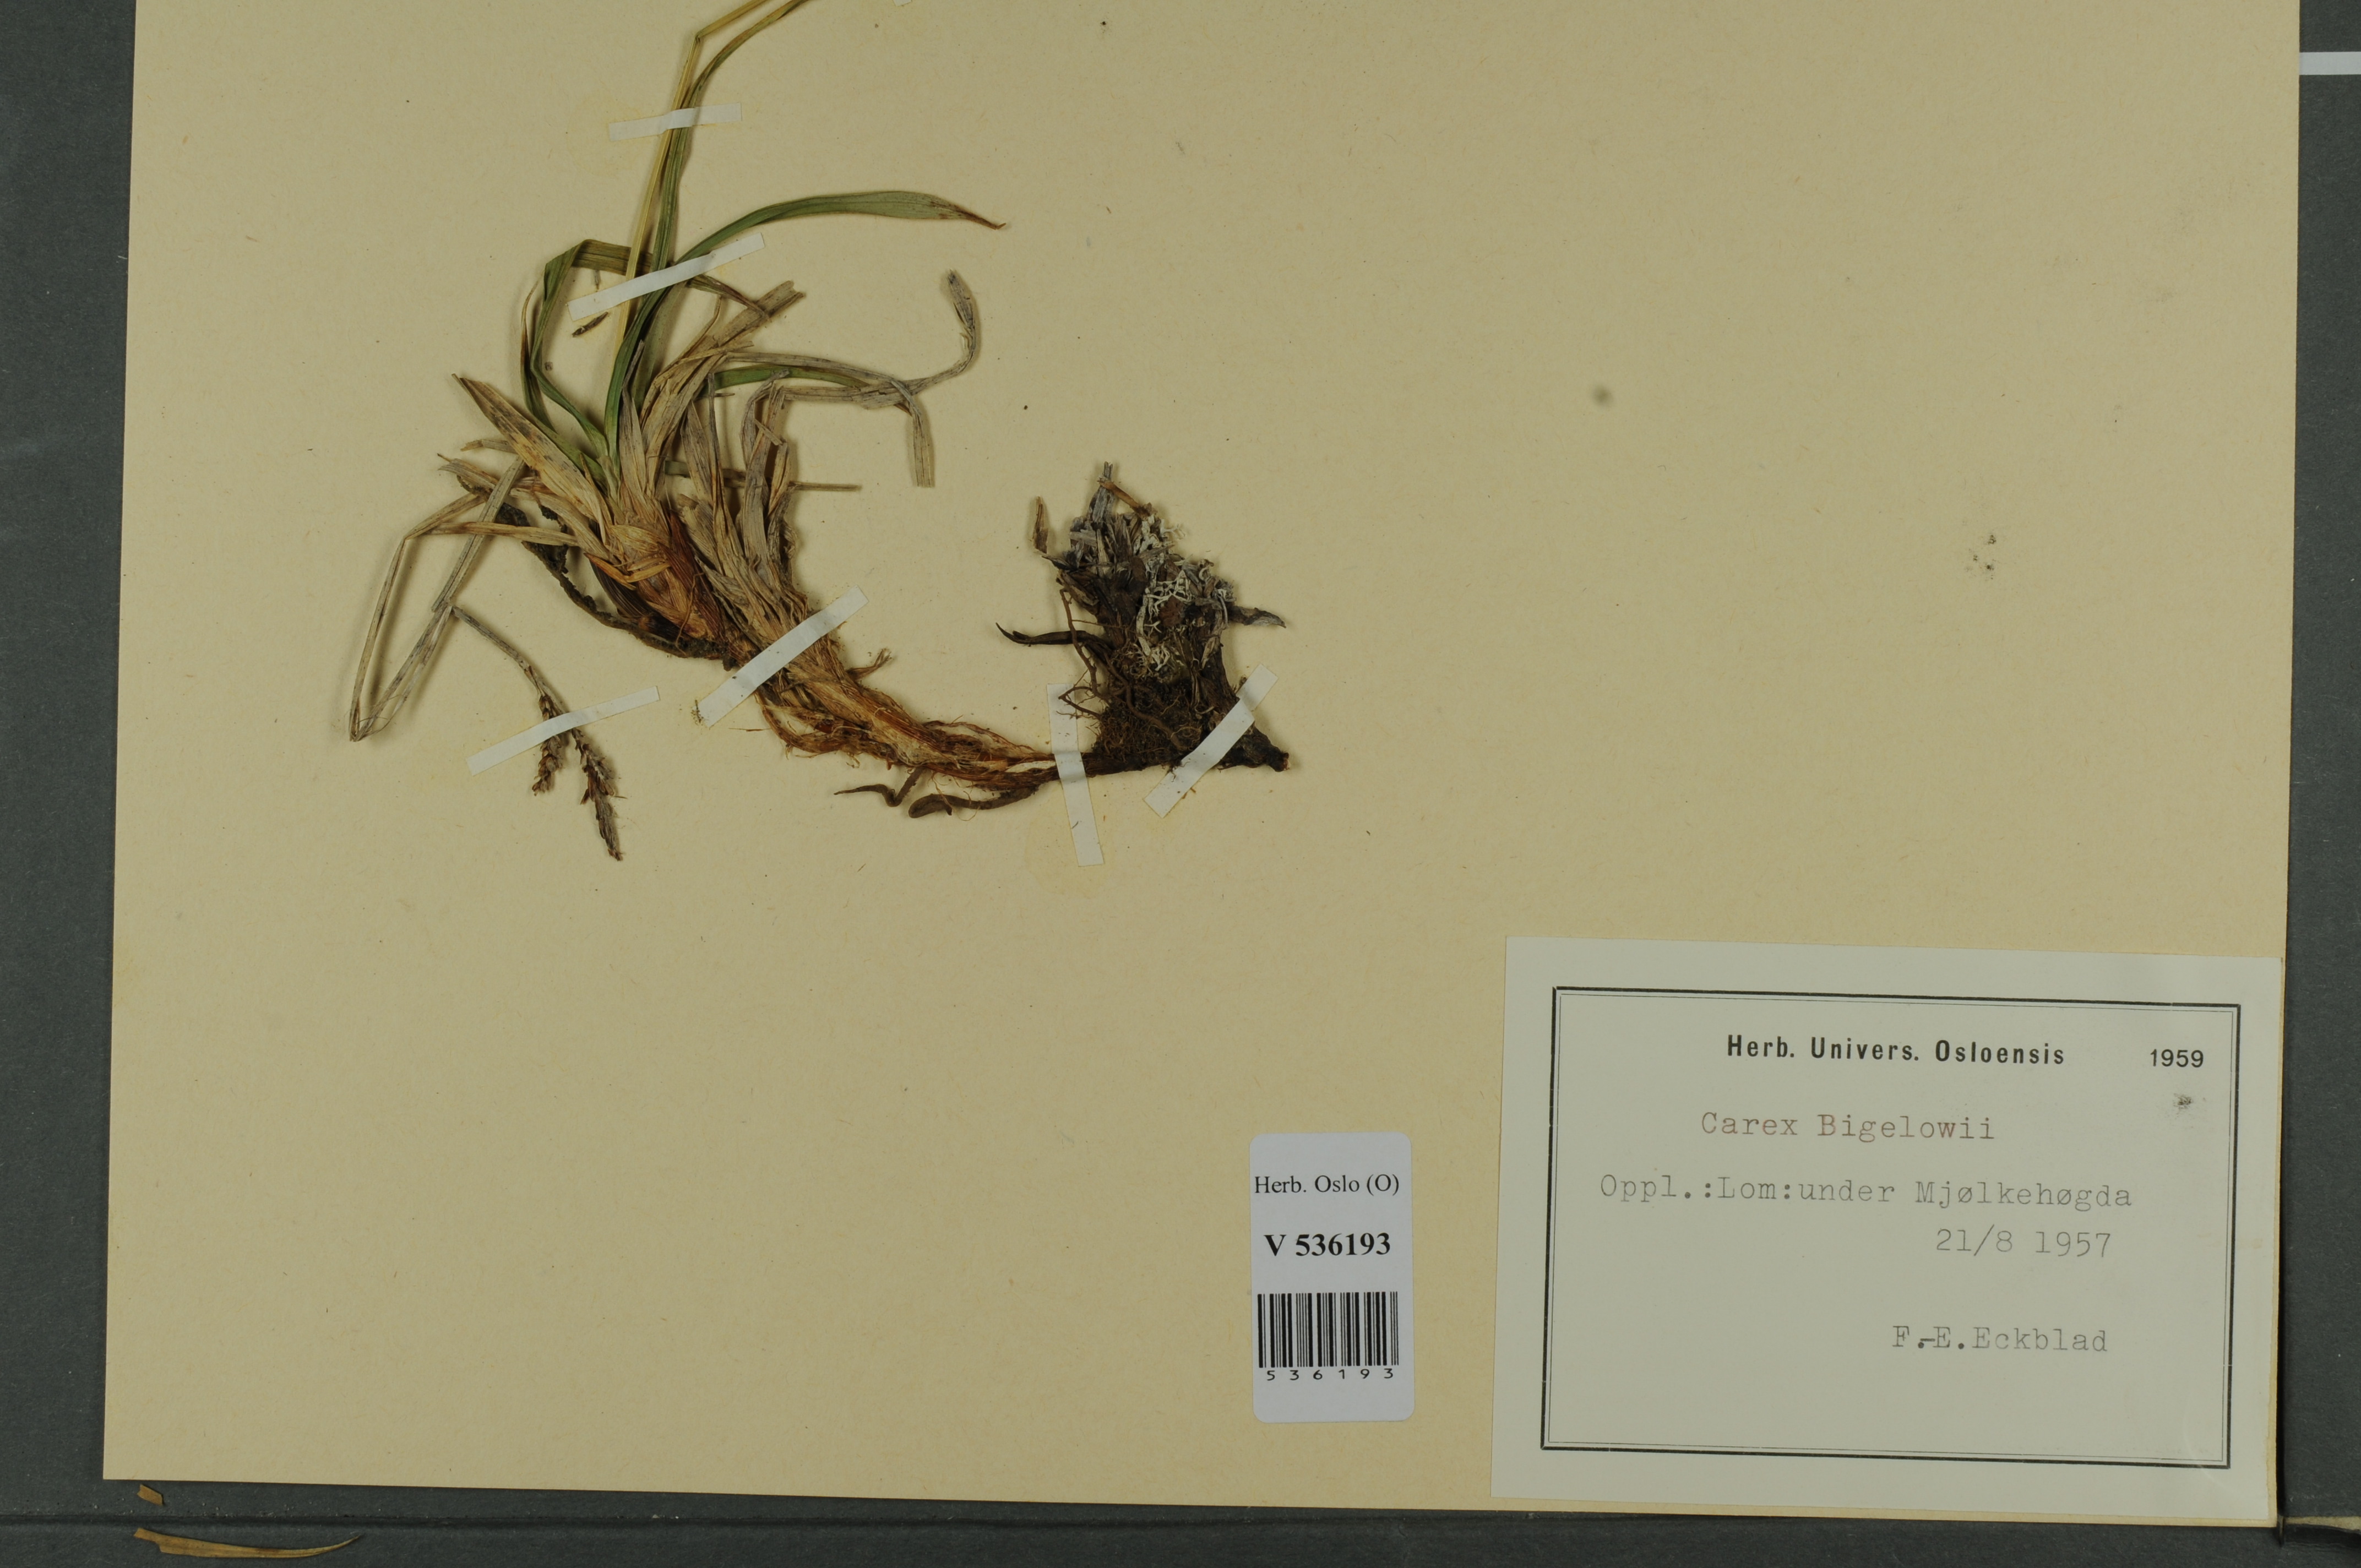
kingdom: Plantae
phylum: Tracheophyta
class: Liliopsida
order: Poales
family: Cyperaceae
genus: Carex
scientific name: Carex bigelowii
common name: Stiff sedge
